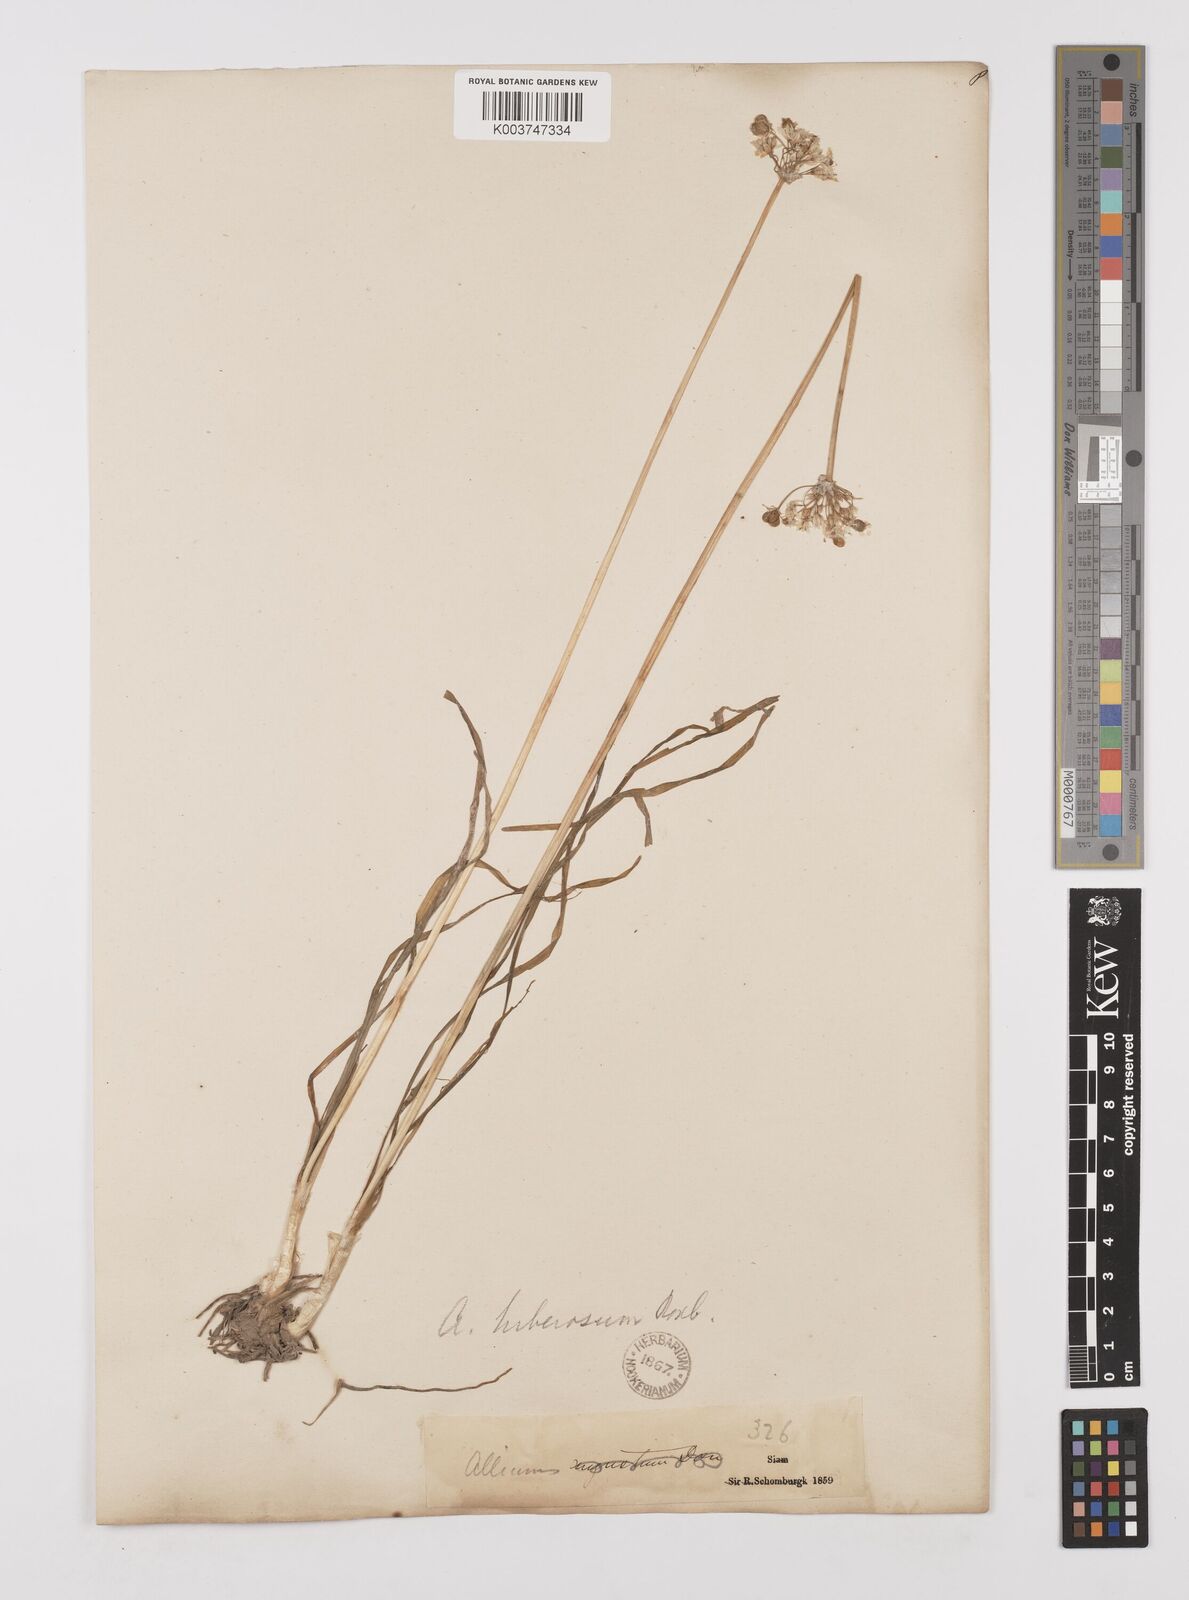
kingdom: Plantae
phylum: Tracheophyta
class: Liliopsida
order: Asparagales
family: Amaryllidaceae
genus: Allium
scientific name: Allium tuberosum
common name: Chinese chives
